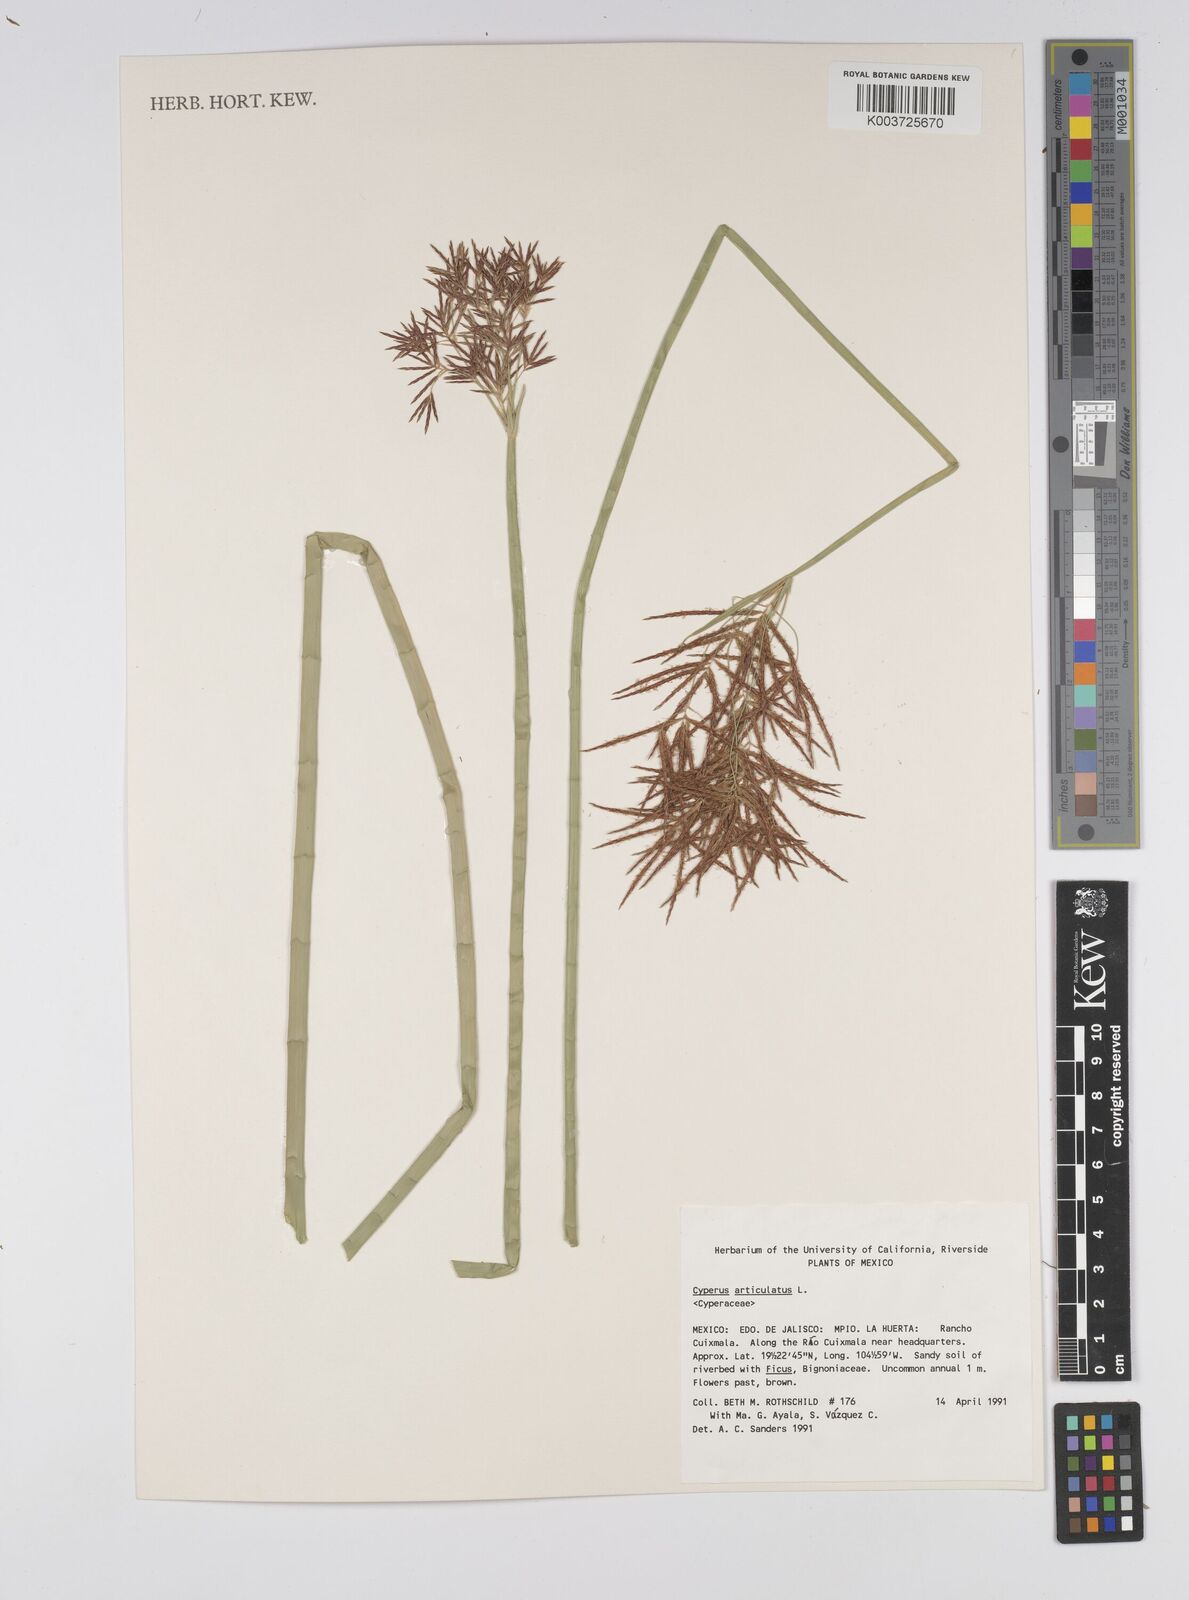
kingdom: Plantae
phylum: Tracheophyta
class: Liliopsida
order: Poales
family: Cyperaceae
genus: Cyperus
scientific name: Cyperus articulatus
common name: Jointed flatsedge
